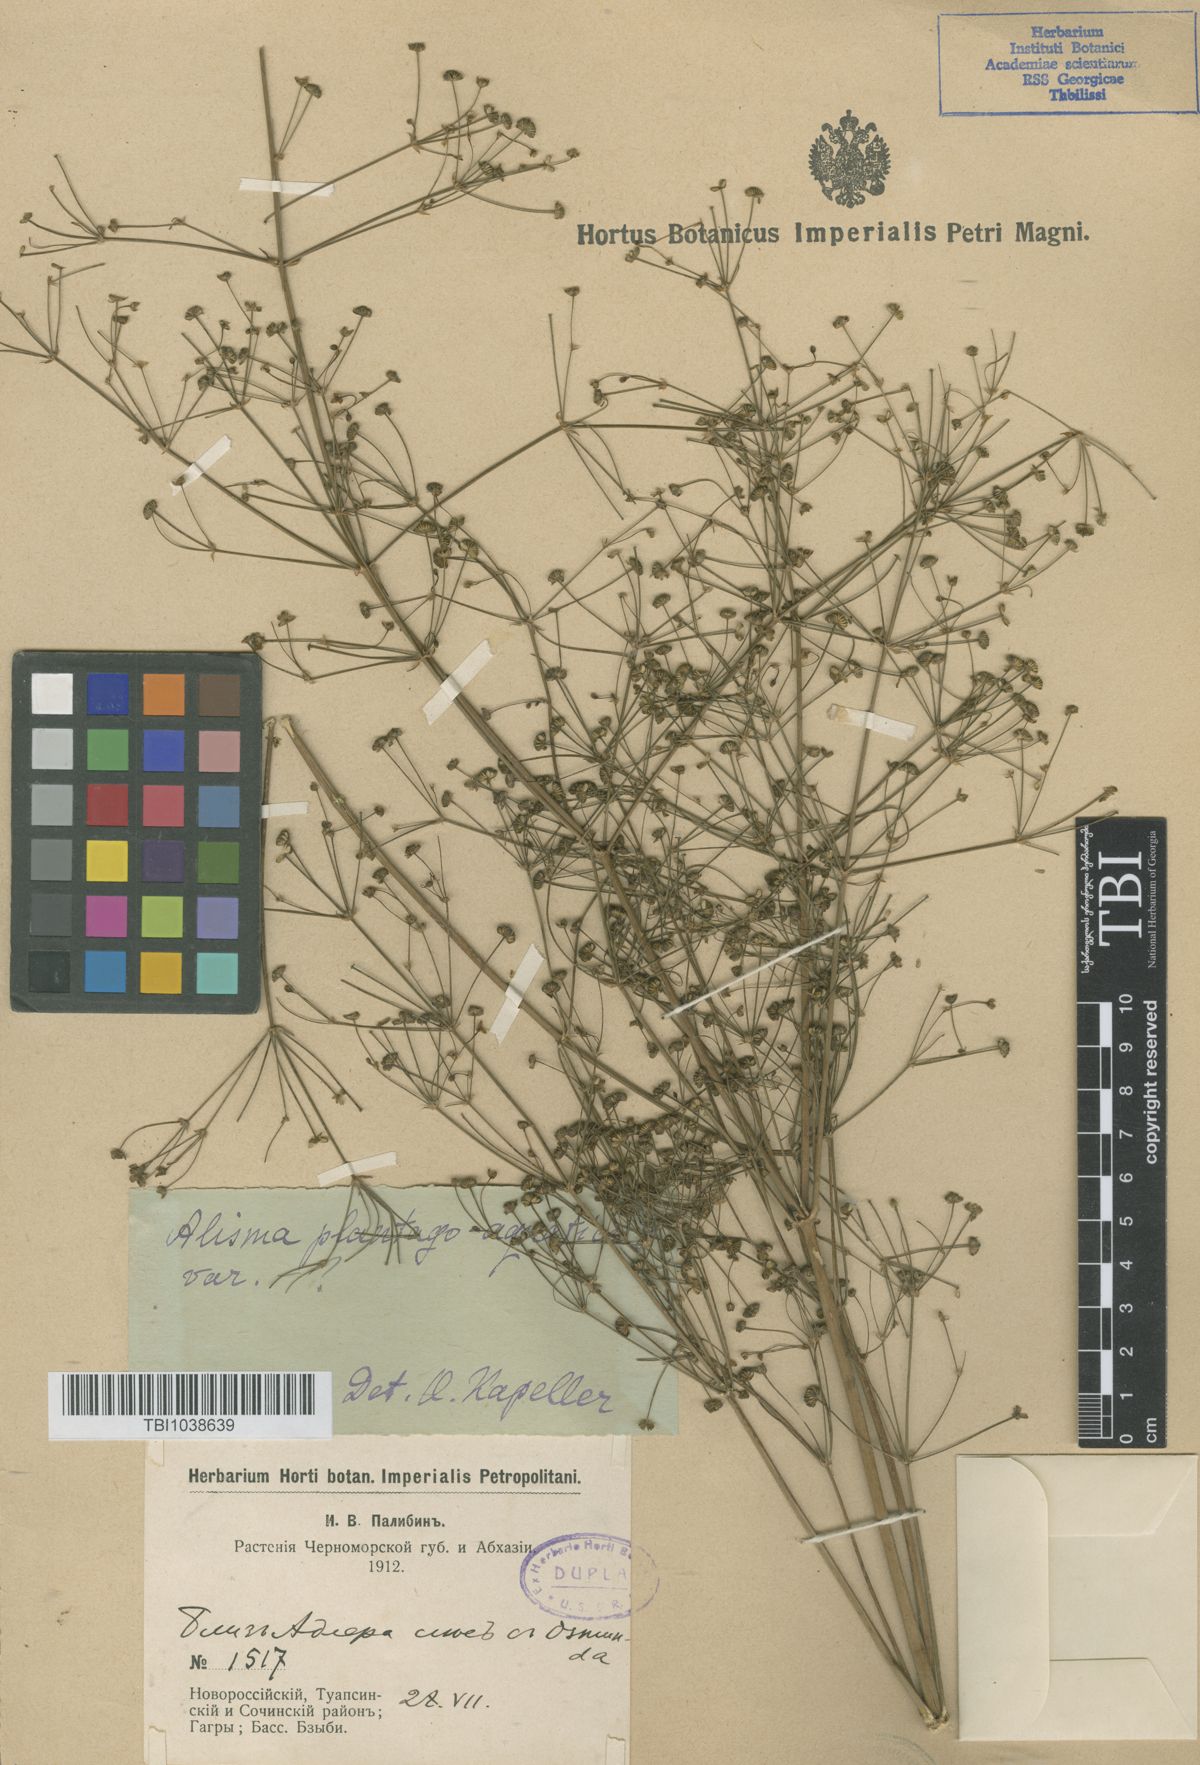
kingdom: Plantae
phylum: Tracheophyta
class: Liliopsida
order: Alismatales
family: Alismataceae
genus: Alisma
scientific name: Alisma plantago-aquatica
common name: Water-plantain
